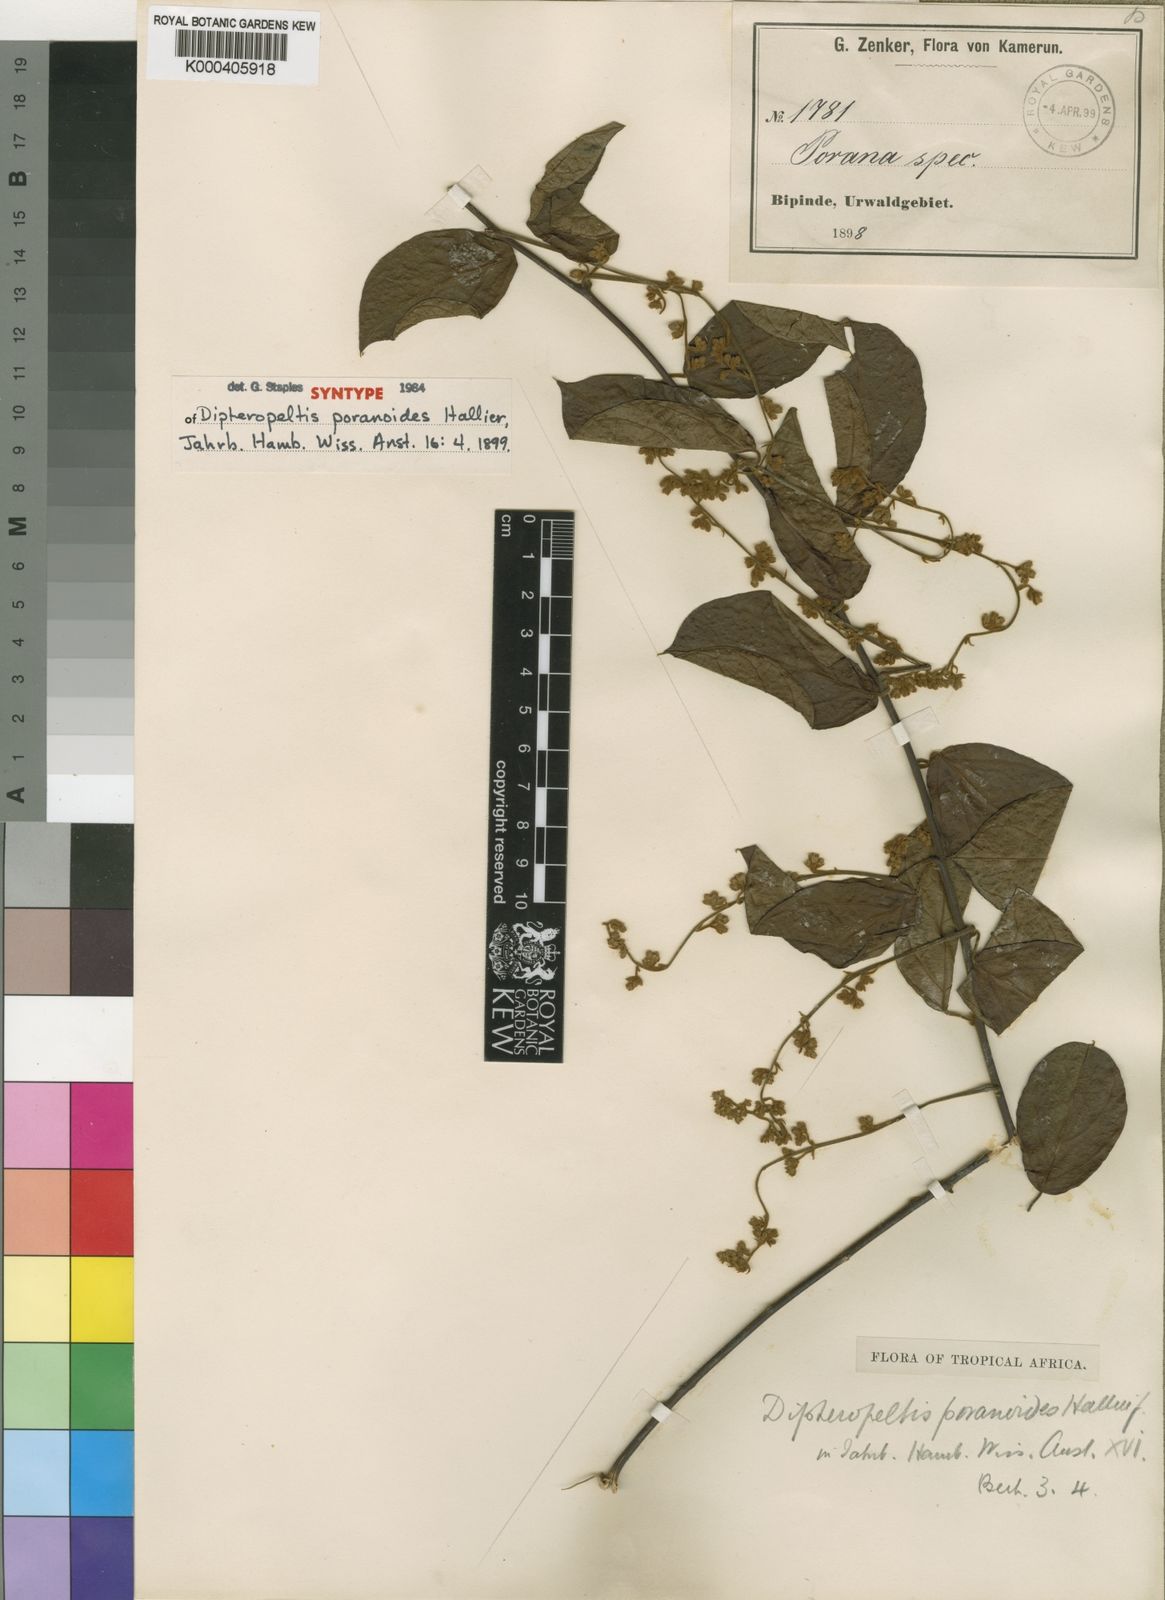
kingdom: Plantae
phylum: Tracheophyta
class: Magnoliopsida
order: Solanales
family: Convolvulaceae
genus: Dipteropeltis
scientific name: Dipteropeltis poranoides
